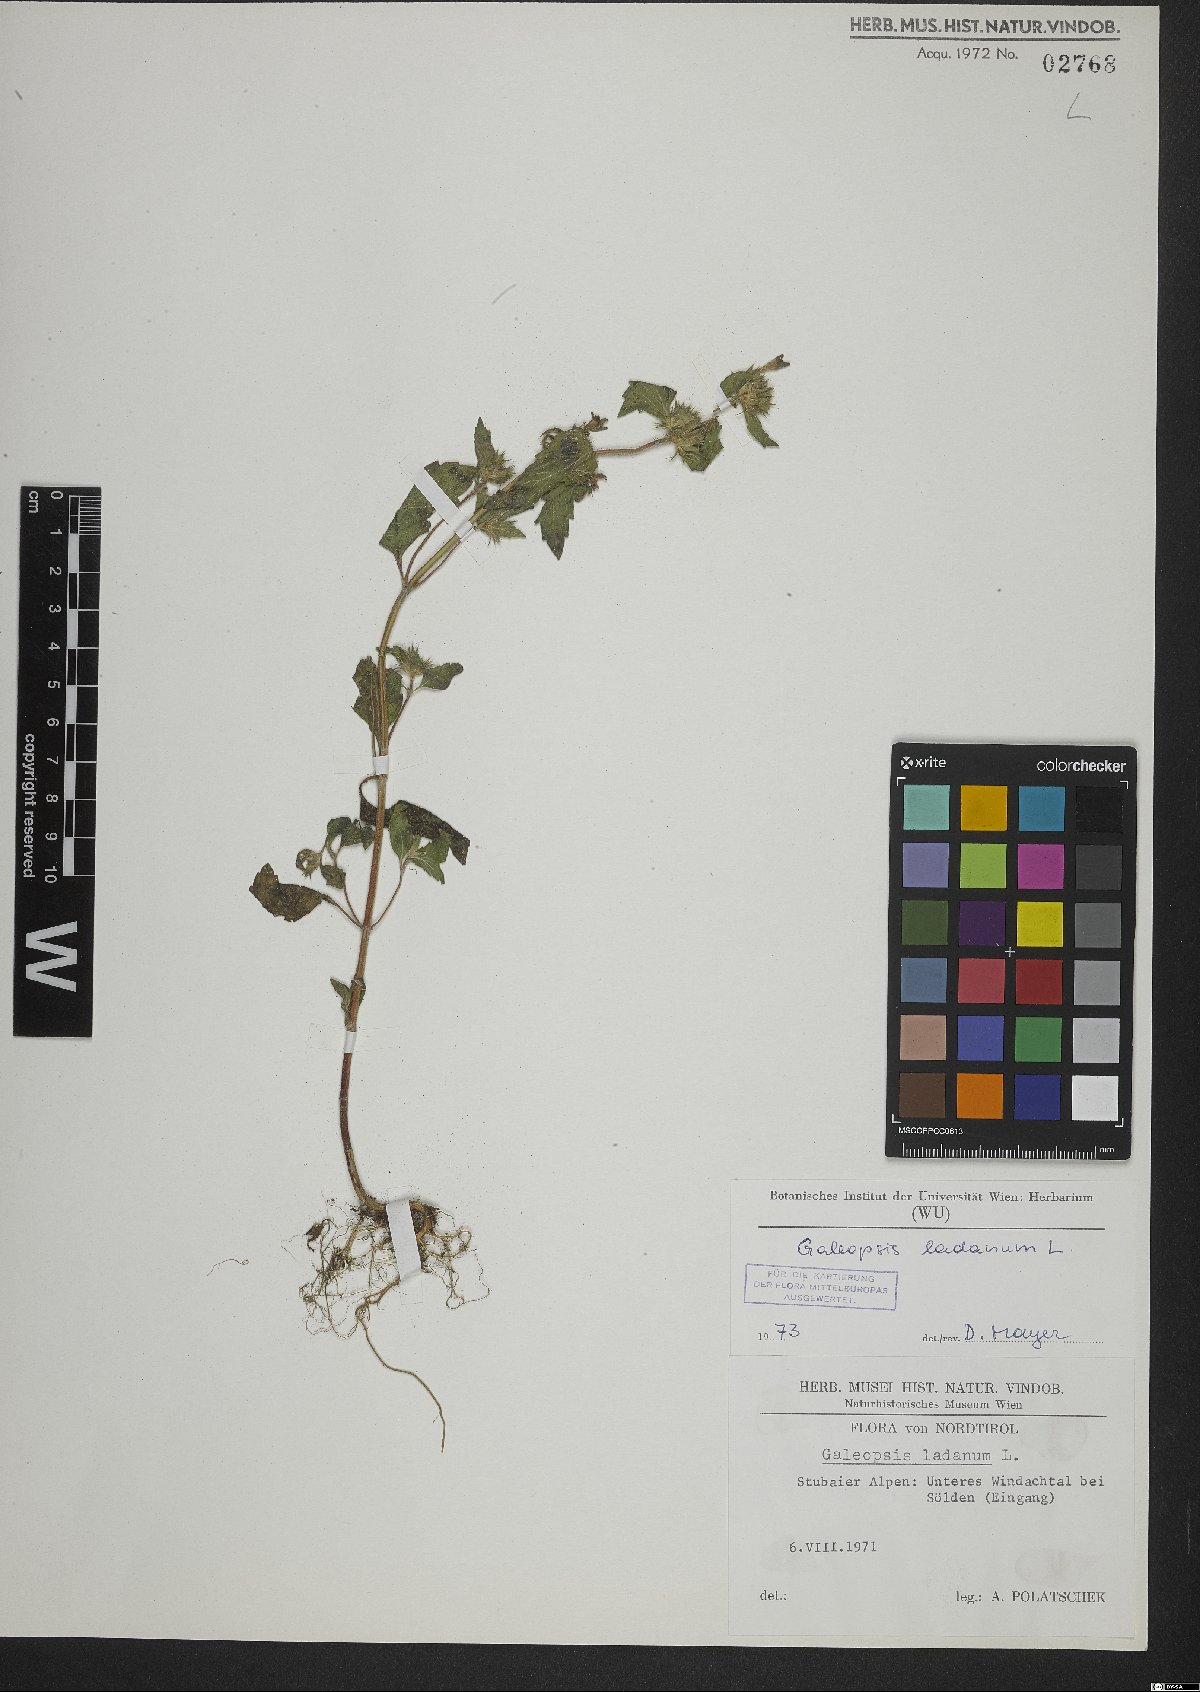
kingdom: Plantae
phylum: Tracheophyta
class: Magnoliopsida
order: Lamiales
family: Lamiaceae
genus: Galeopsis
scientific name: Galeopsis ladanum
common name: Broad-leaved hemp-nettle
